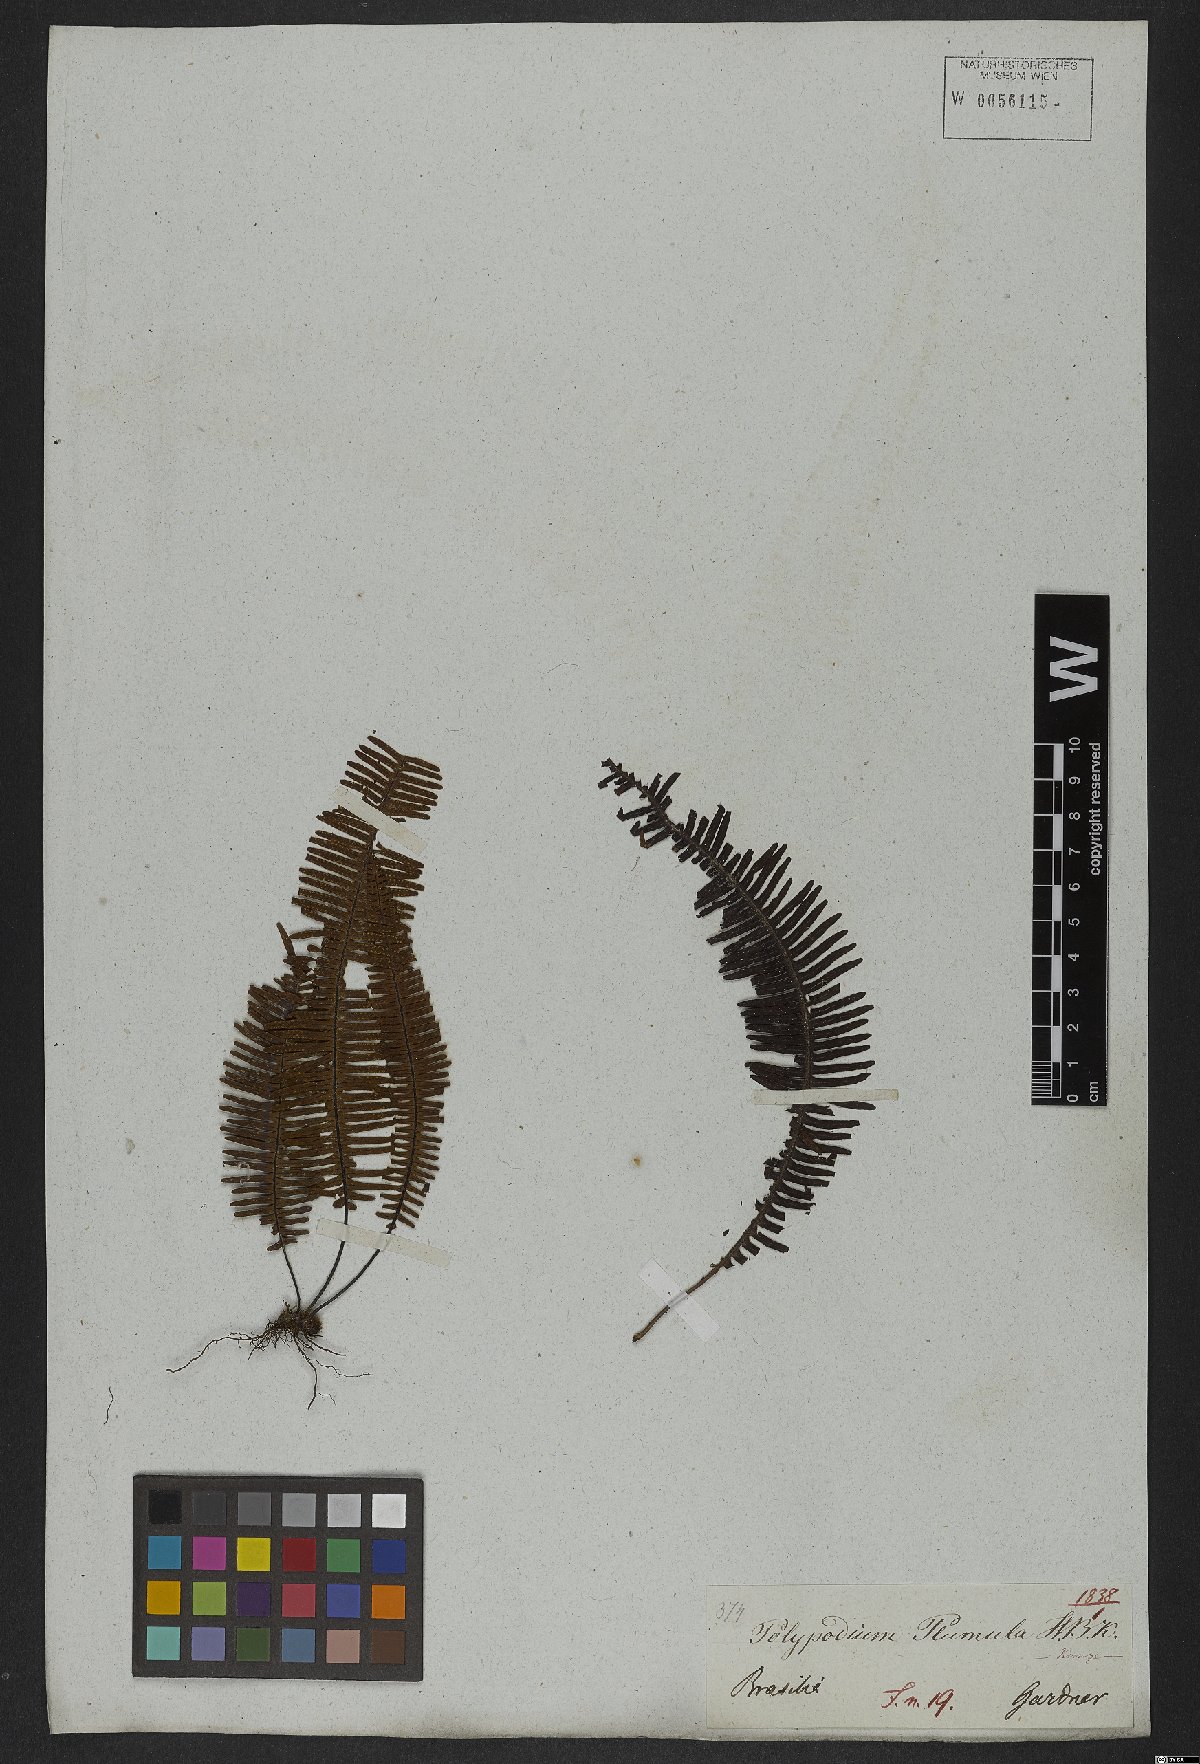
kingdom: Plantae
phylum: Tracheophyta
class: Polypodiopsida
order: Polypodiales
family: Polypodiaceae
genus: Pecluma
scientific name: Pecluma plumula
